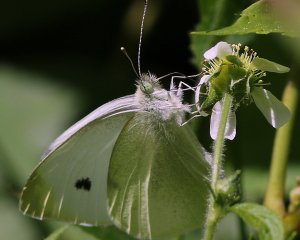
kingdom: Animalia
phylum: Arthropoda
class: Insecta
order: Lepidoptera
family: Pieridae
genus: Pieris
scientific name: Pieris rapae
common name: Cabbage White
